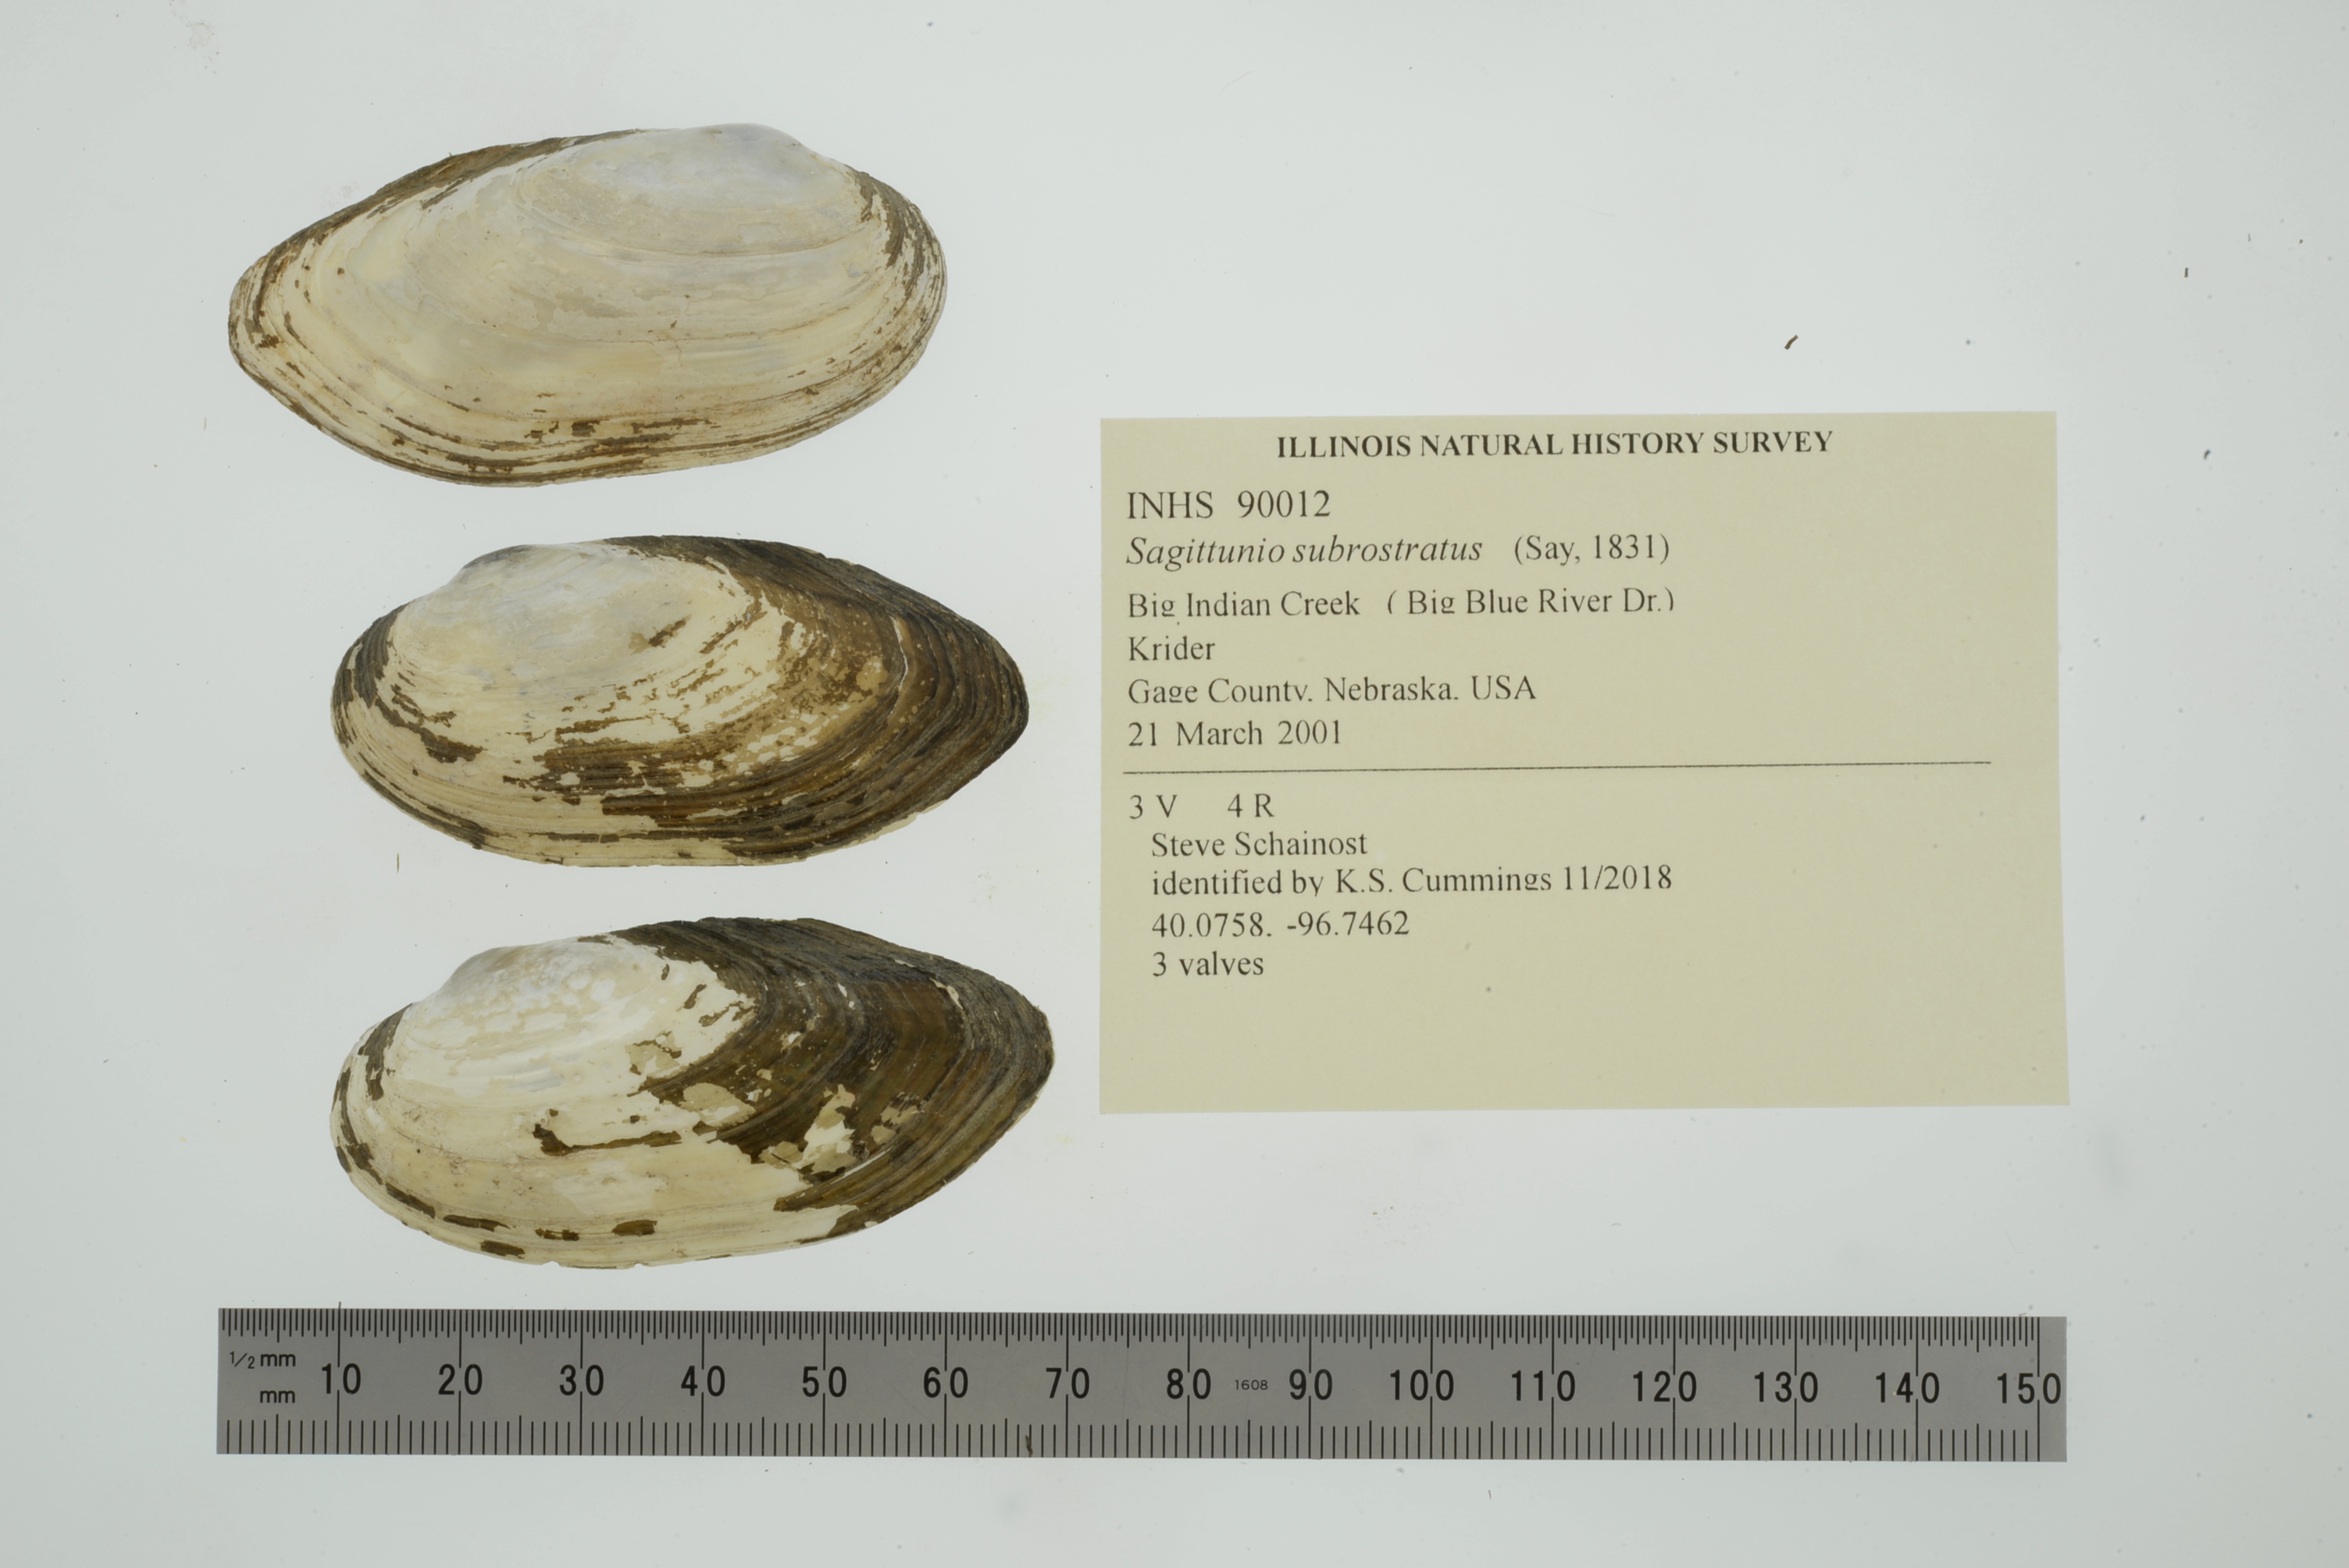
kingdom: Animalia
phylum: Mollusca
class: Bivalvia
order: Unionida
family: Unionidae
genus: Sagittunio
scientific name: Sagittunio subrostratus
